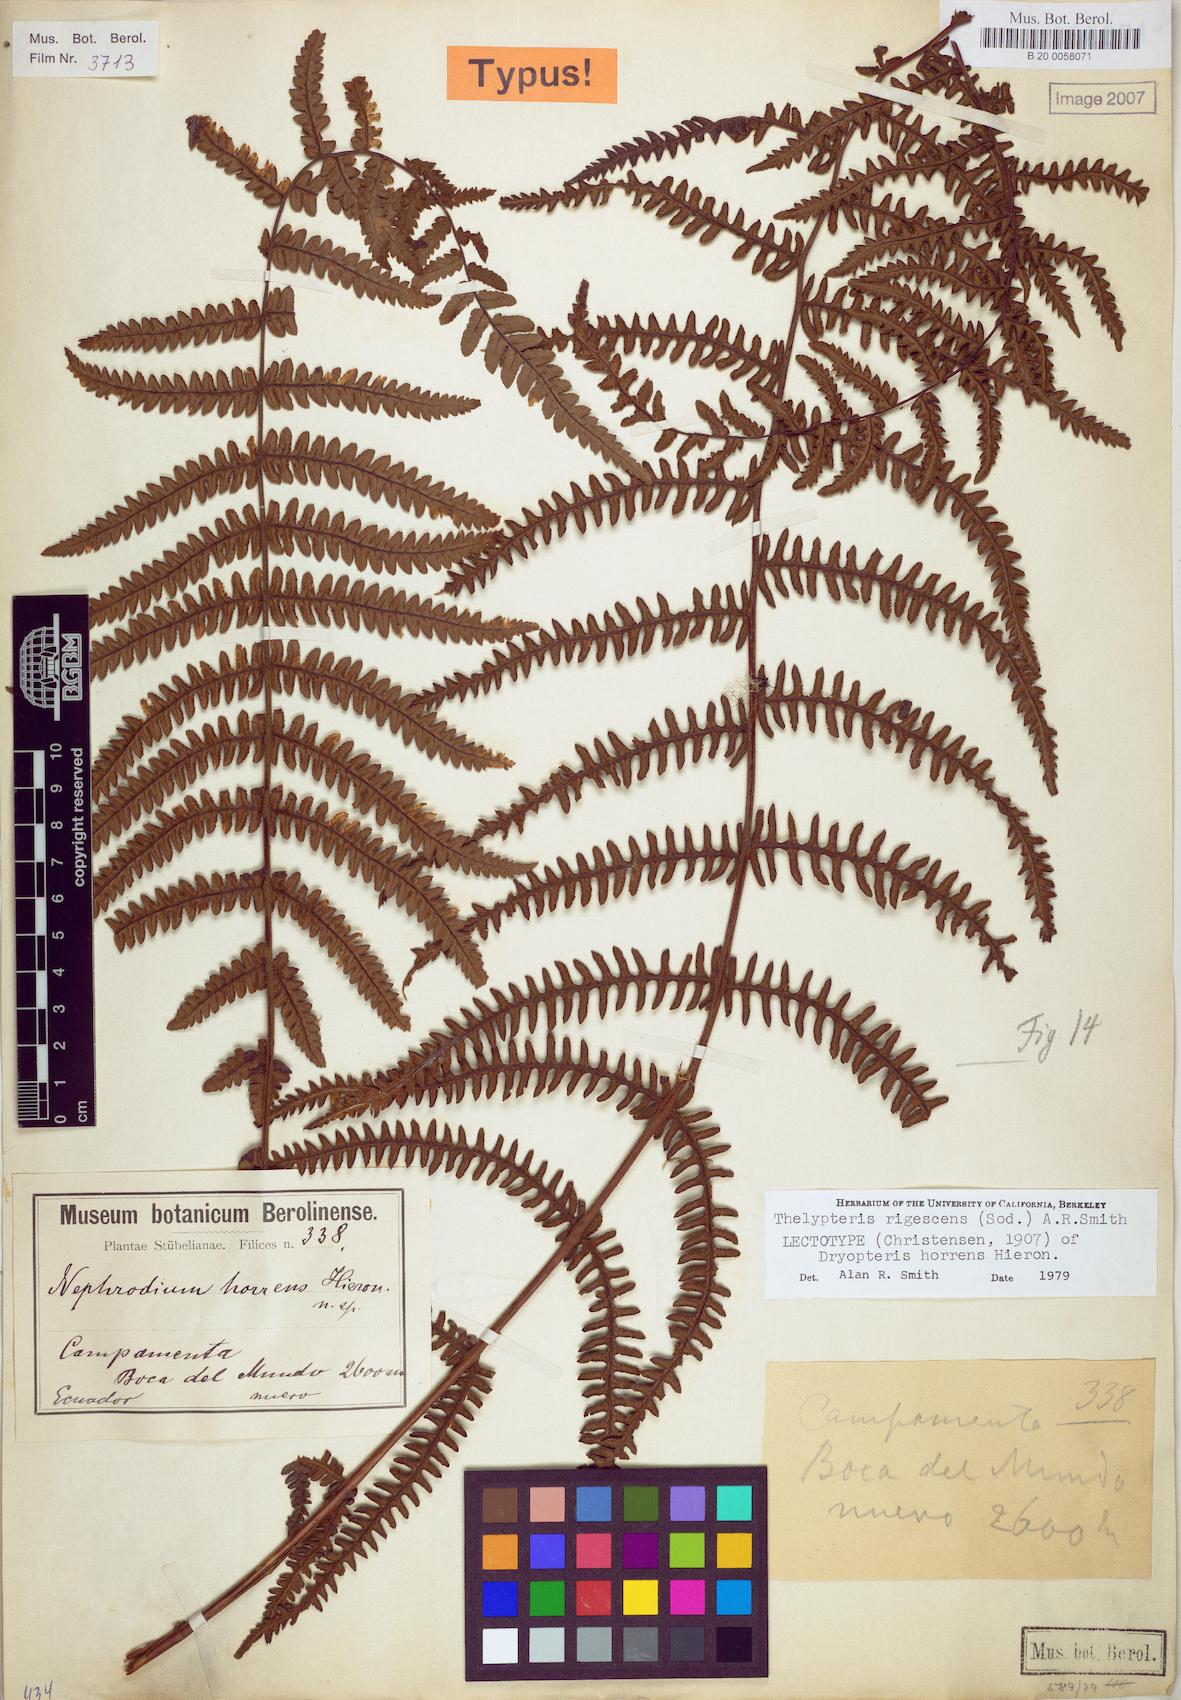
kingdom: Plantae
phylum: Tracheophyta
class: Polypodiopsida
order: Polypodiales
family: Thelypteridaceae
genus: Amauropelta
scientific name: Amauropelta rigescens
